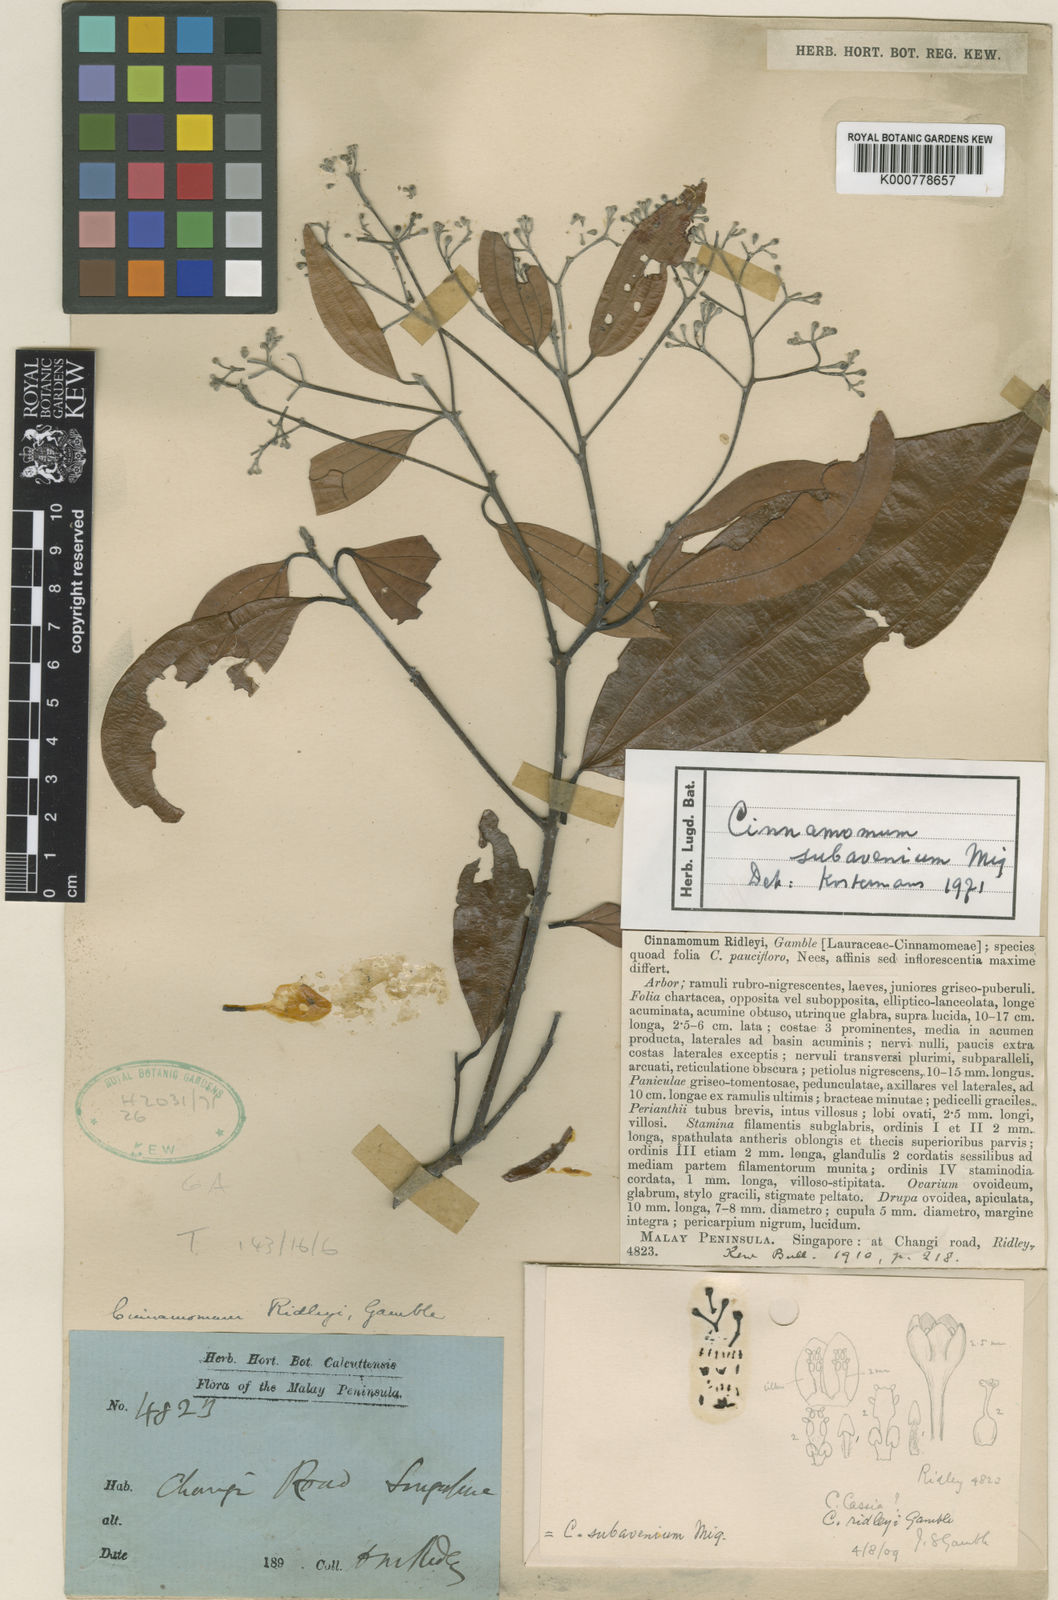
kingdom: Plantae
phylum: Tracheophyta
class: Magnoliopsida
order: Laurales
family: Lauraceae
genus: Cinnamomum
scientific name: Cinnamomum subavenium
